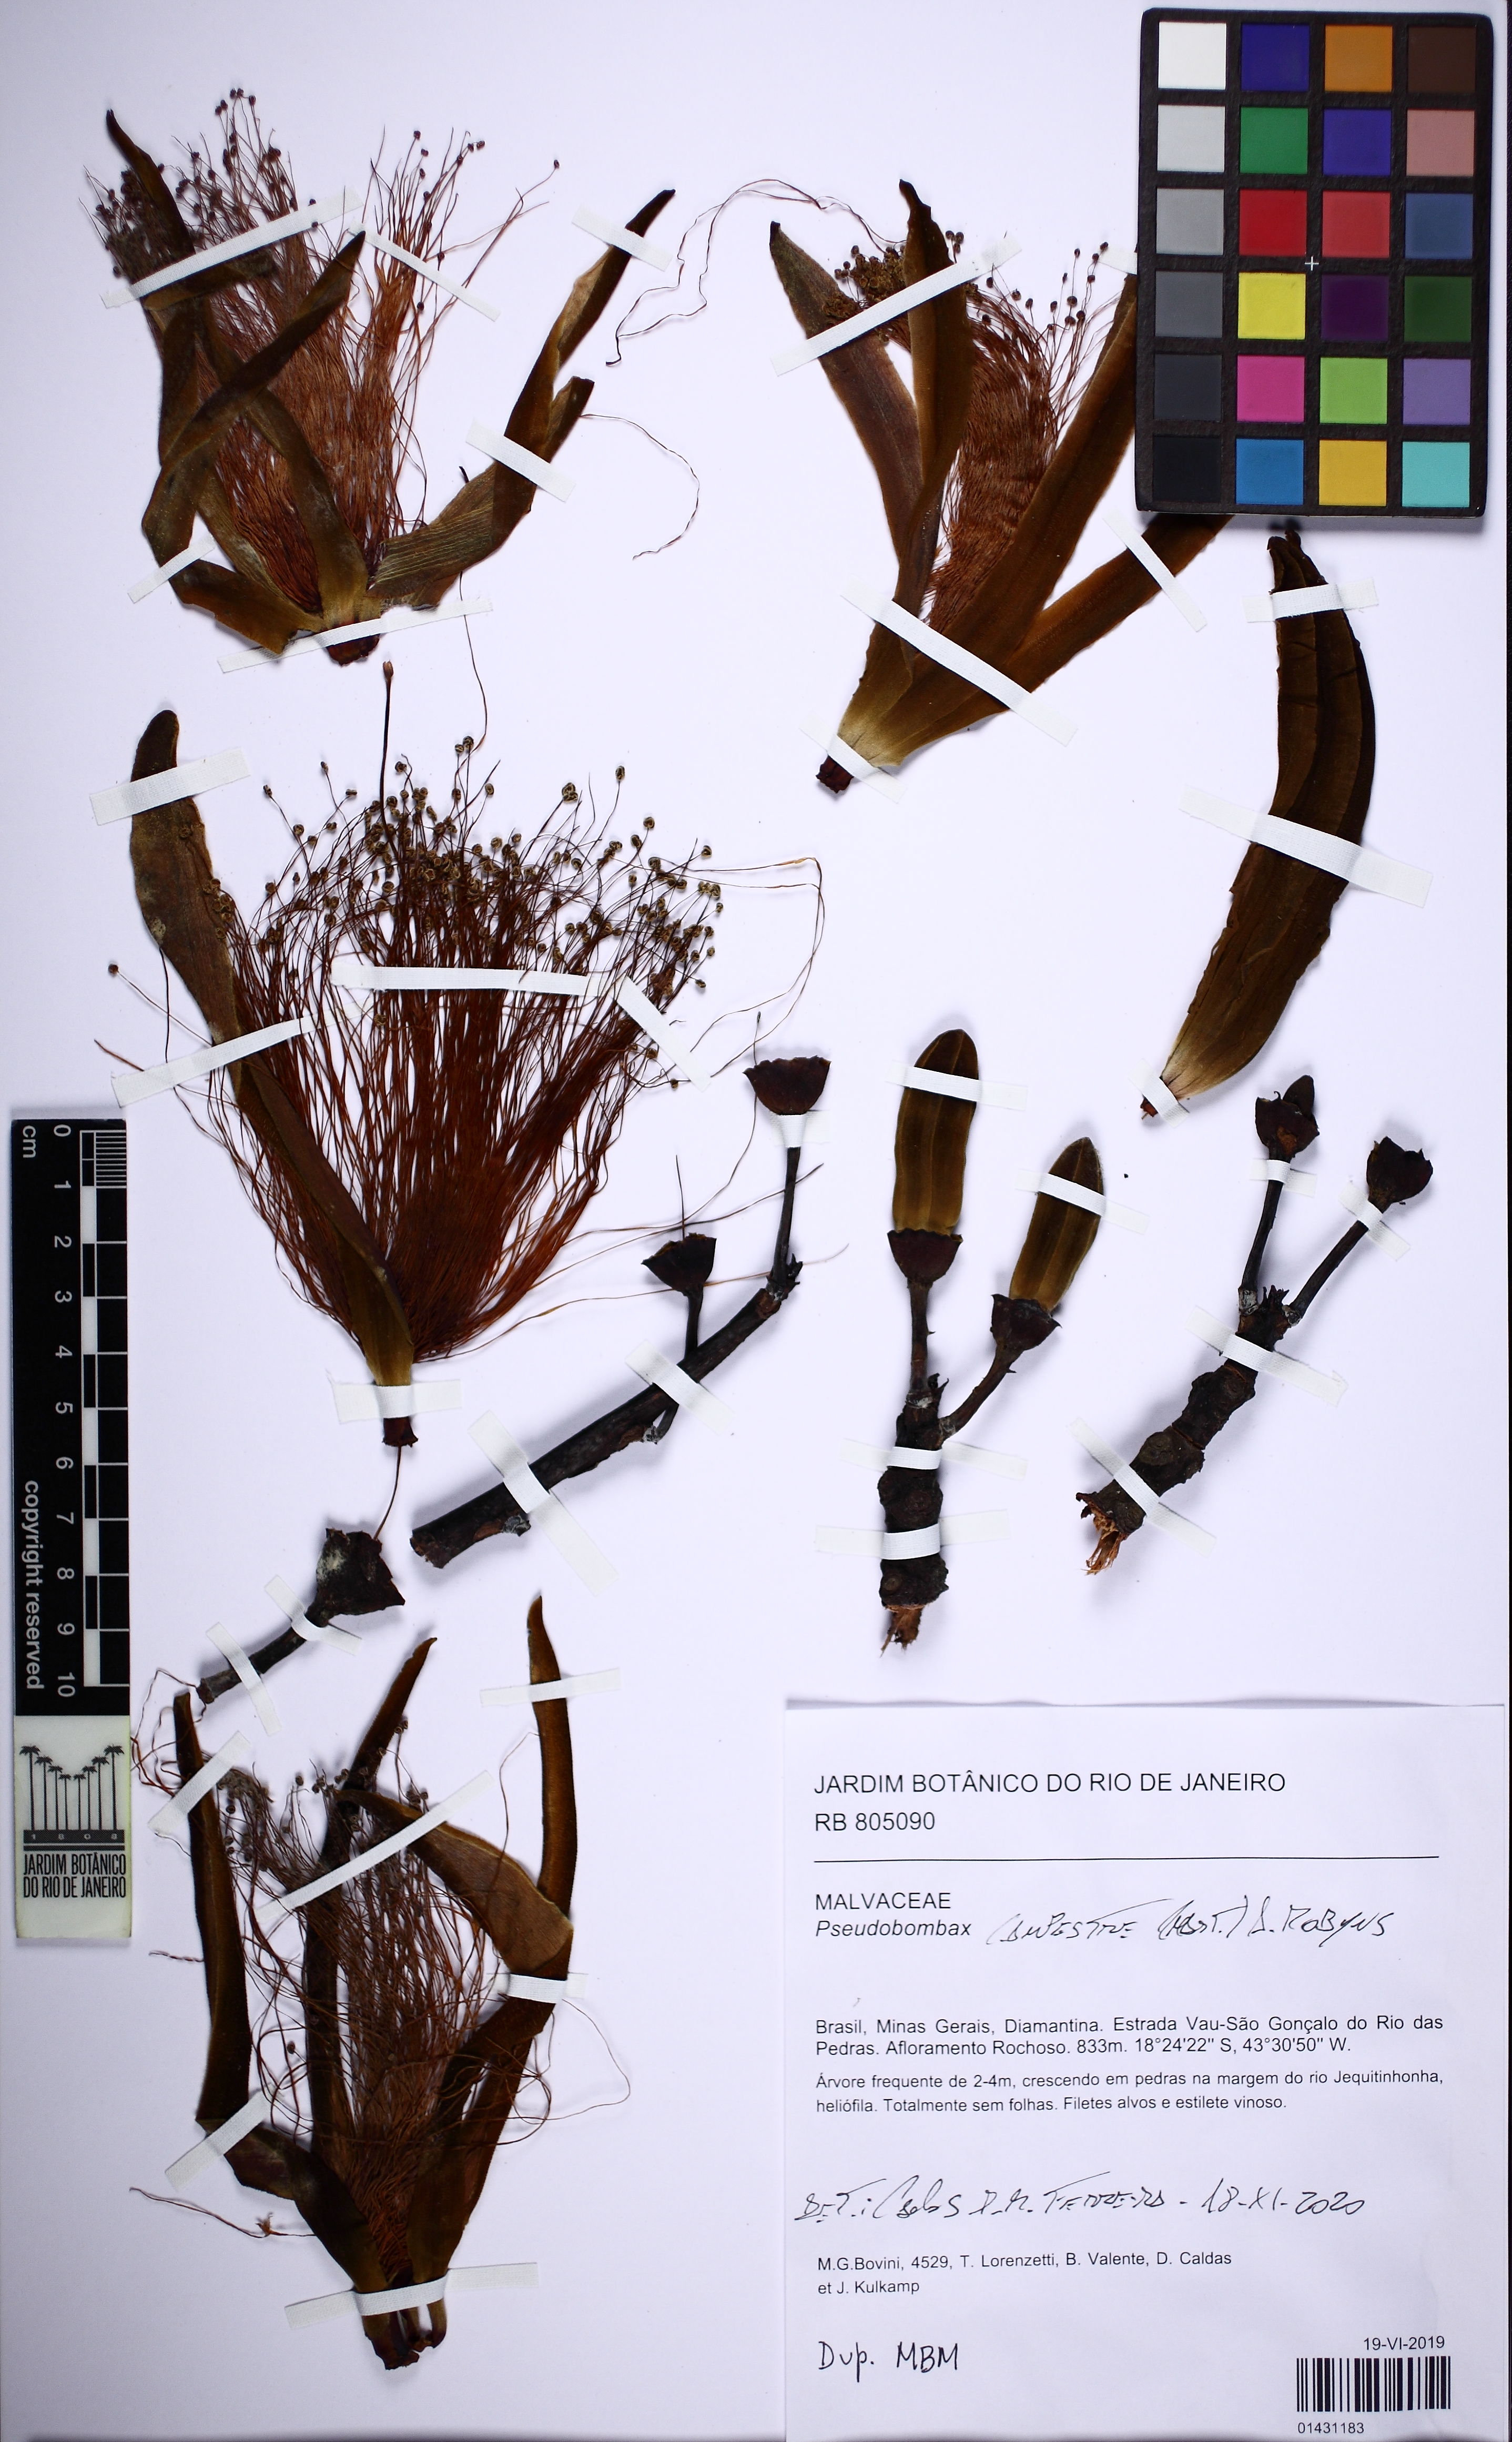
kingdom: Plantae
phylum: Tracheophyta
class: Magnoliopsida
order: Malvales
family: Malvaceae
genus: Pseudobombax
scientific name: Pseudobombax campestre
